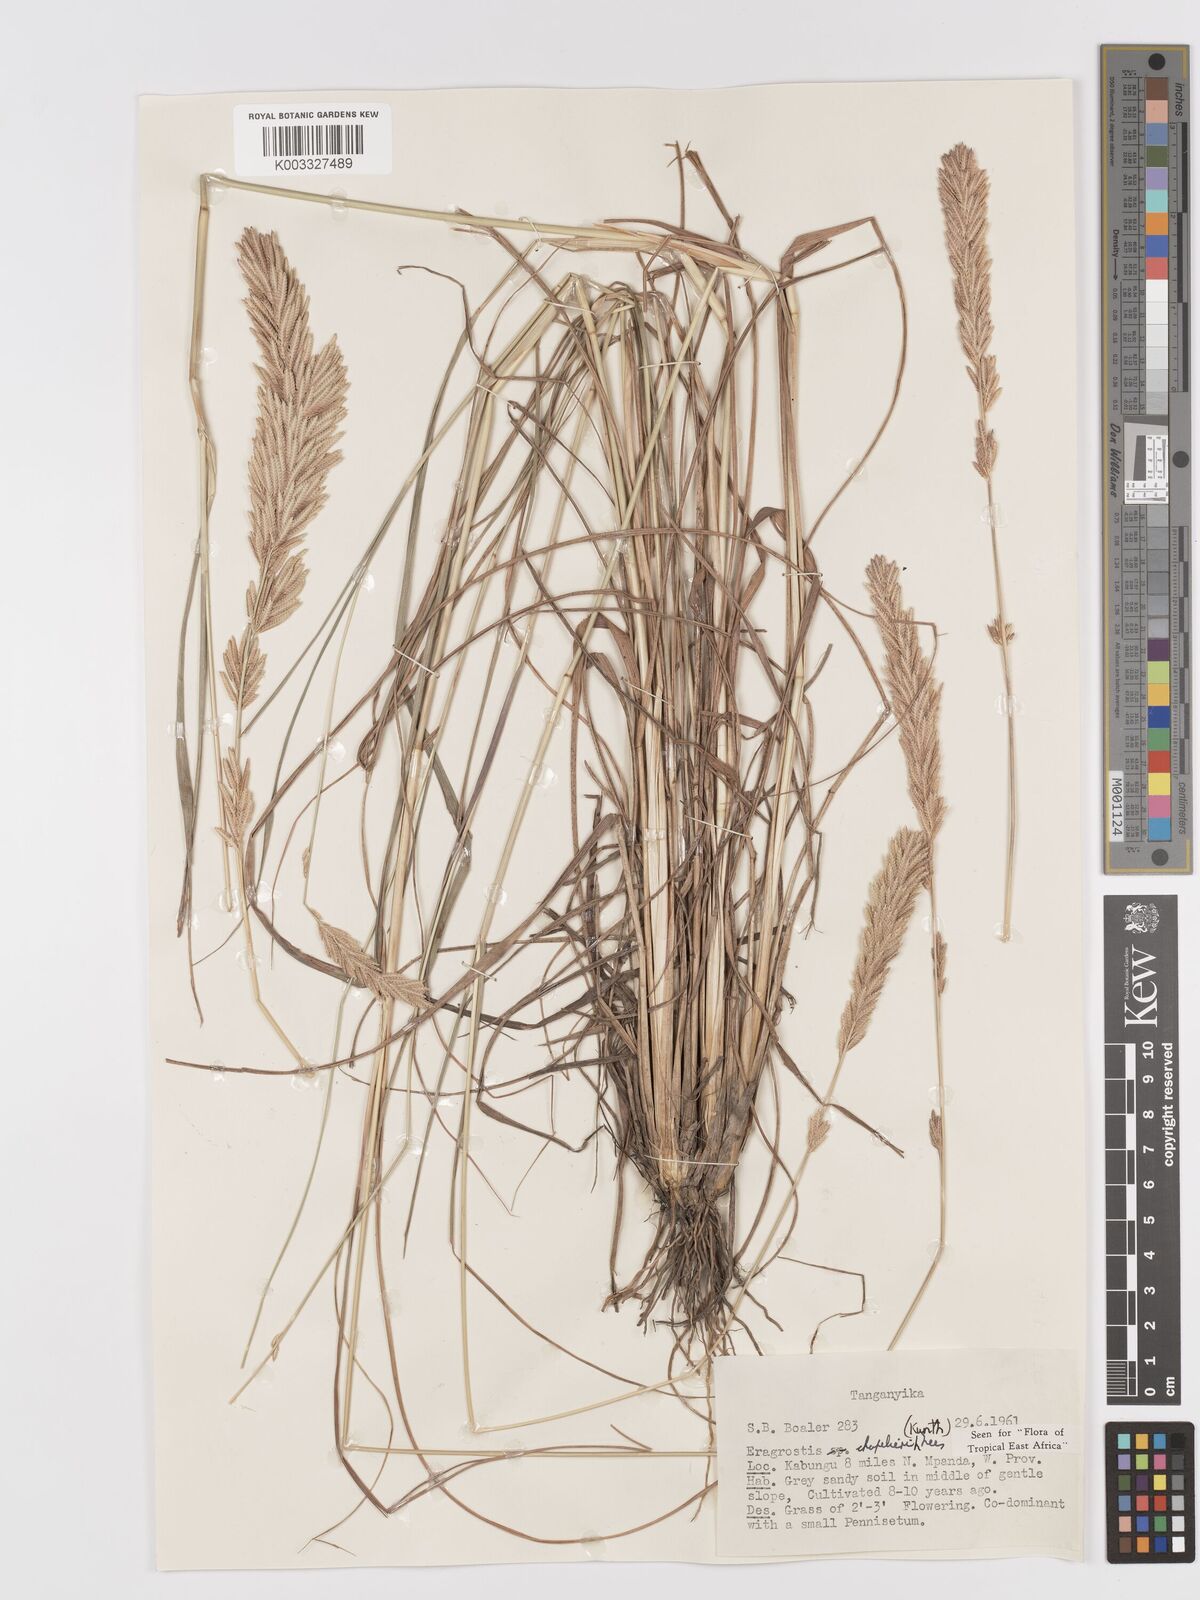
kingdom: Plantae
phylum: Tracheophyta
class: Liliopsida
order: Poales
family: Poaceae
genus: Eragrostis
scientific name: Eragrostis chapelieri
